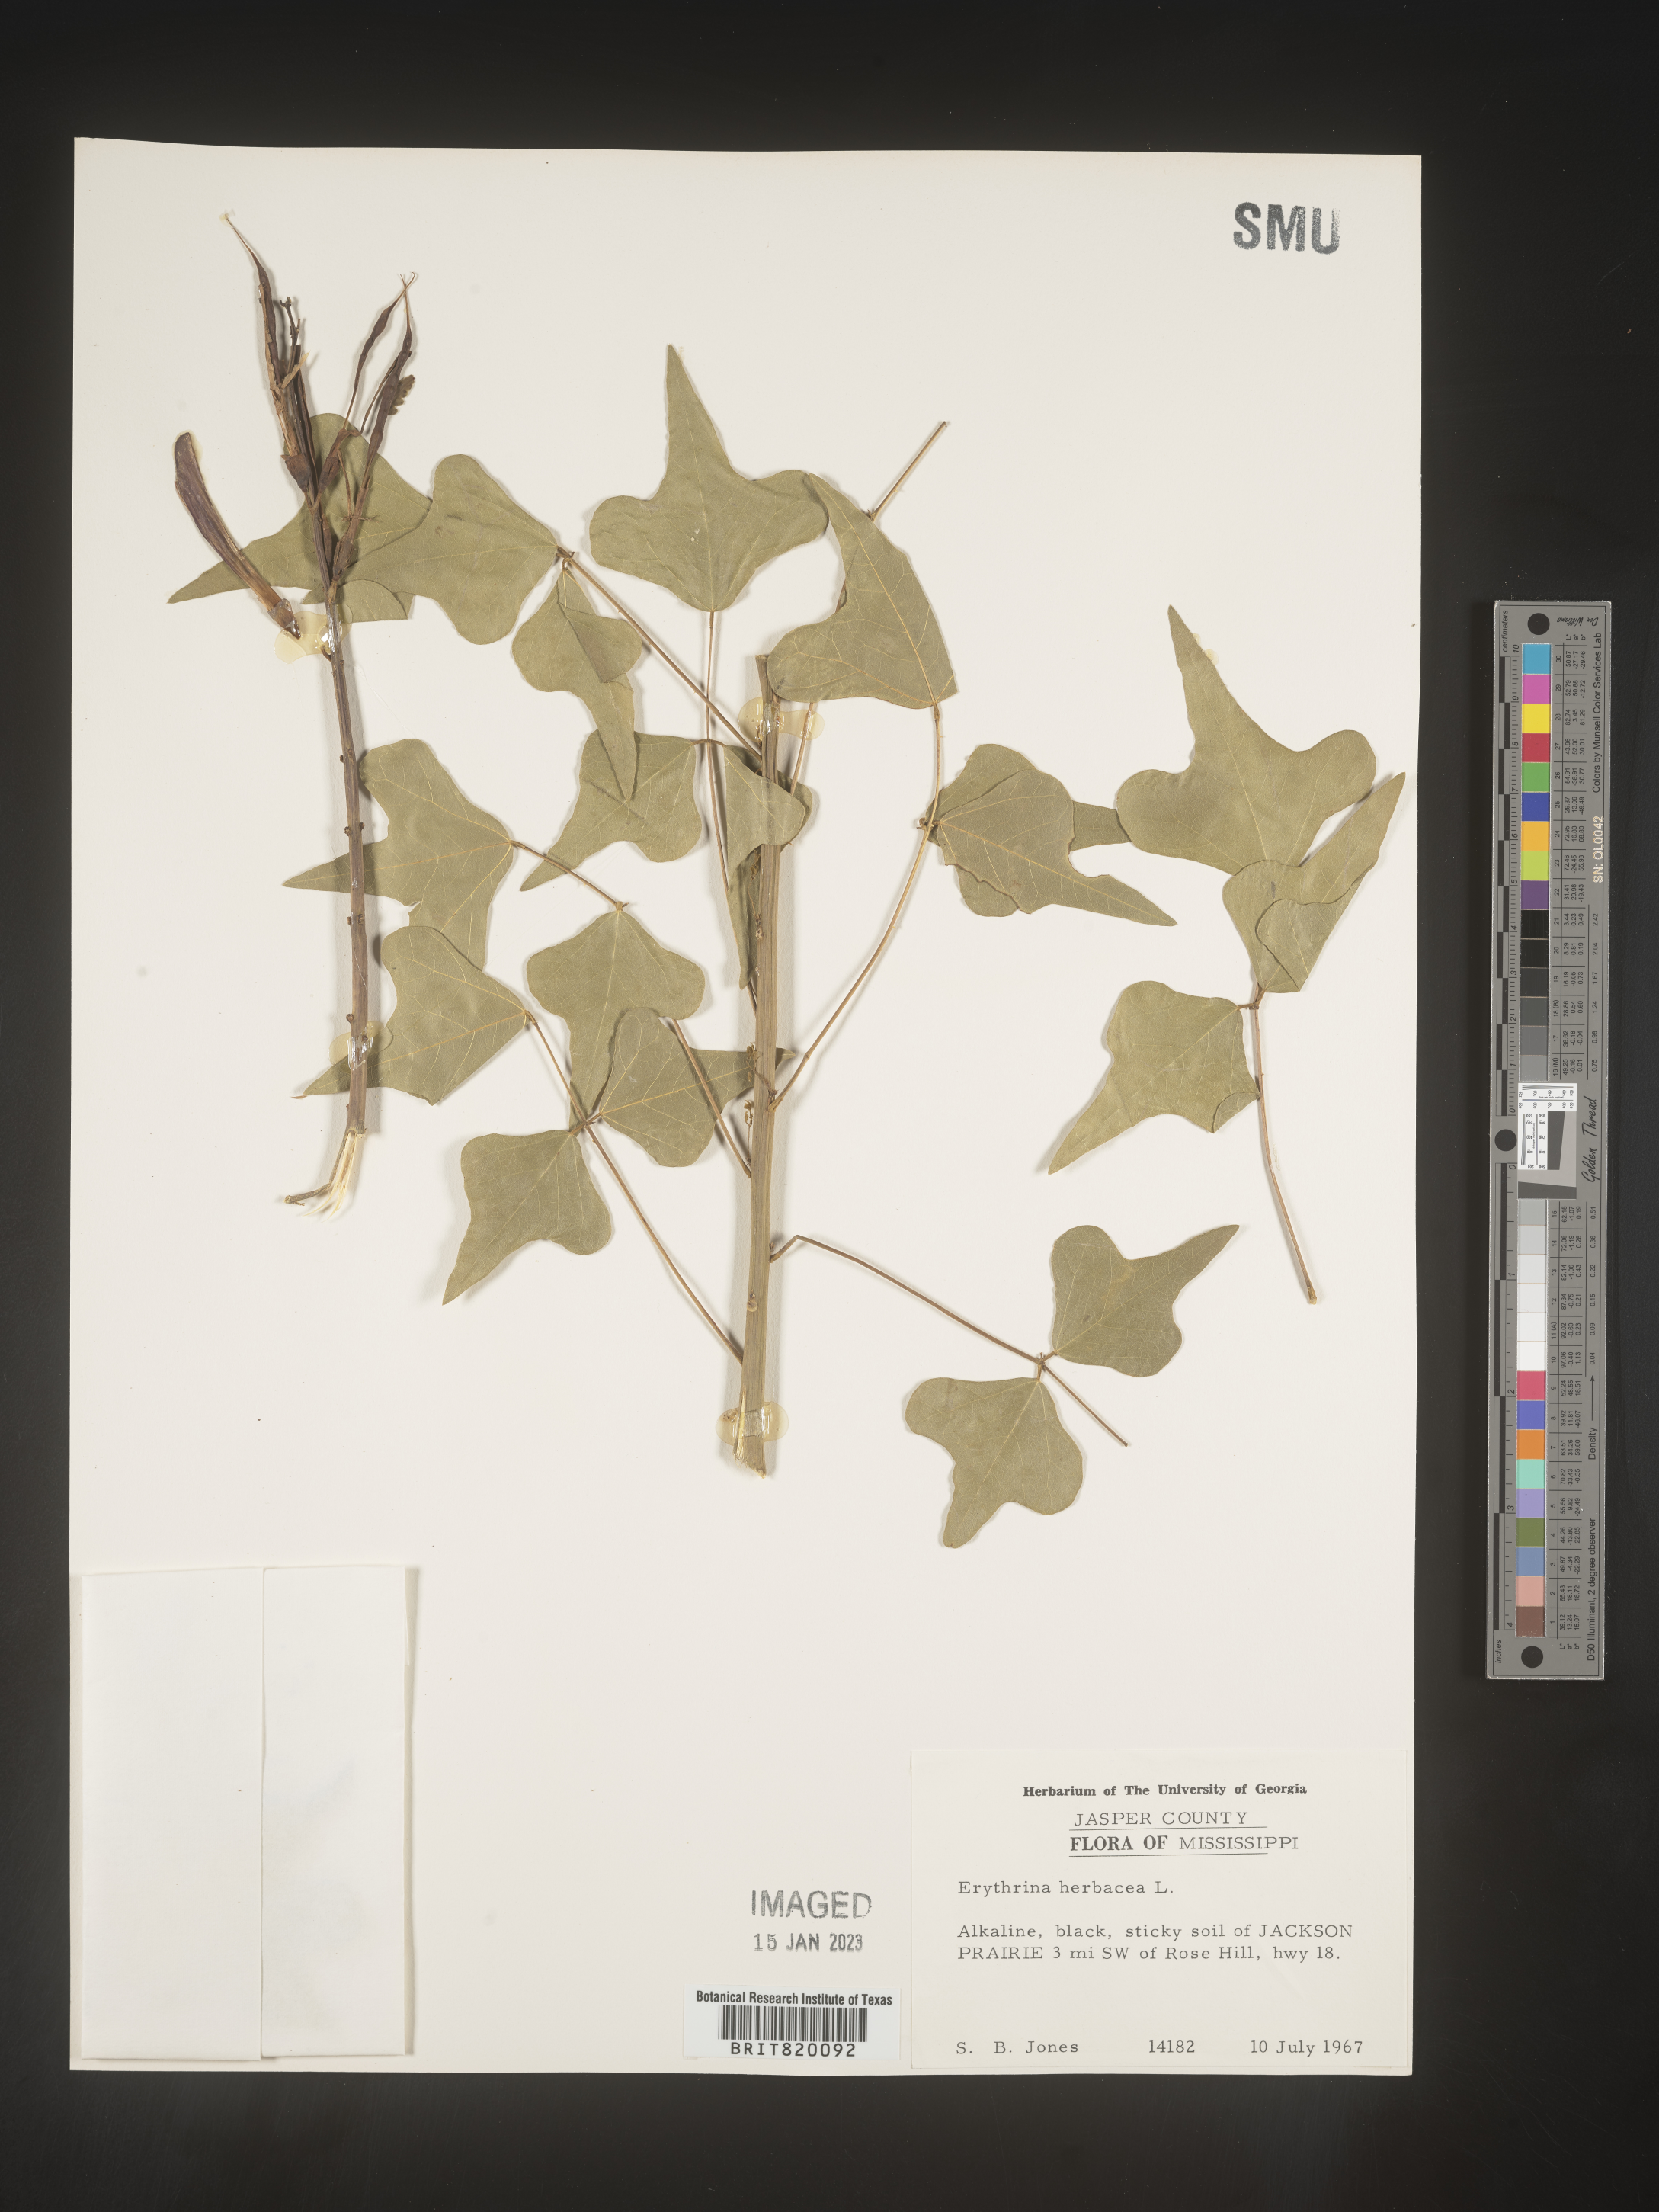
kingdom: Plantae
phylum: Tracheophyta
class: Magnoliopsida
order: Fabales
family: Fabaceae
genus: Erythrina
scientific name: Erythrina herbacea
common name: Coral-bean
